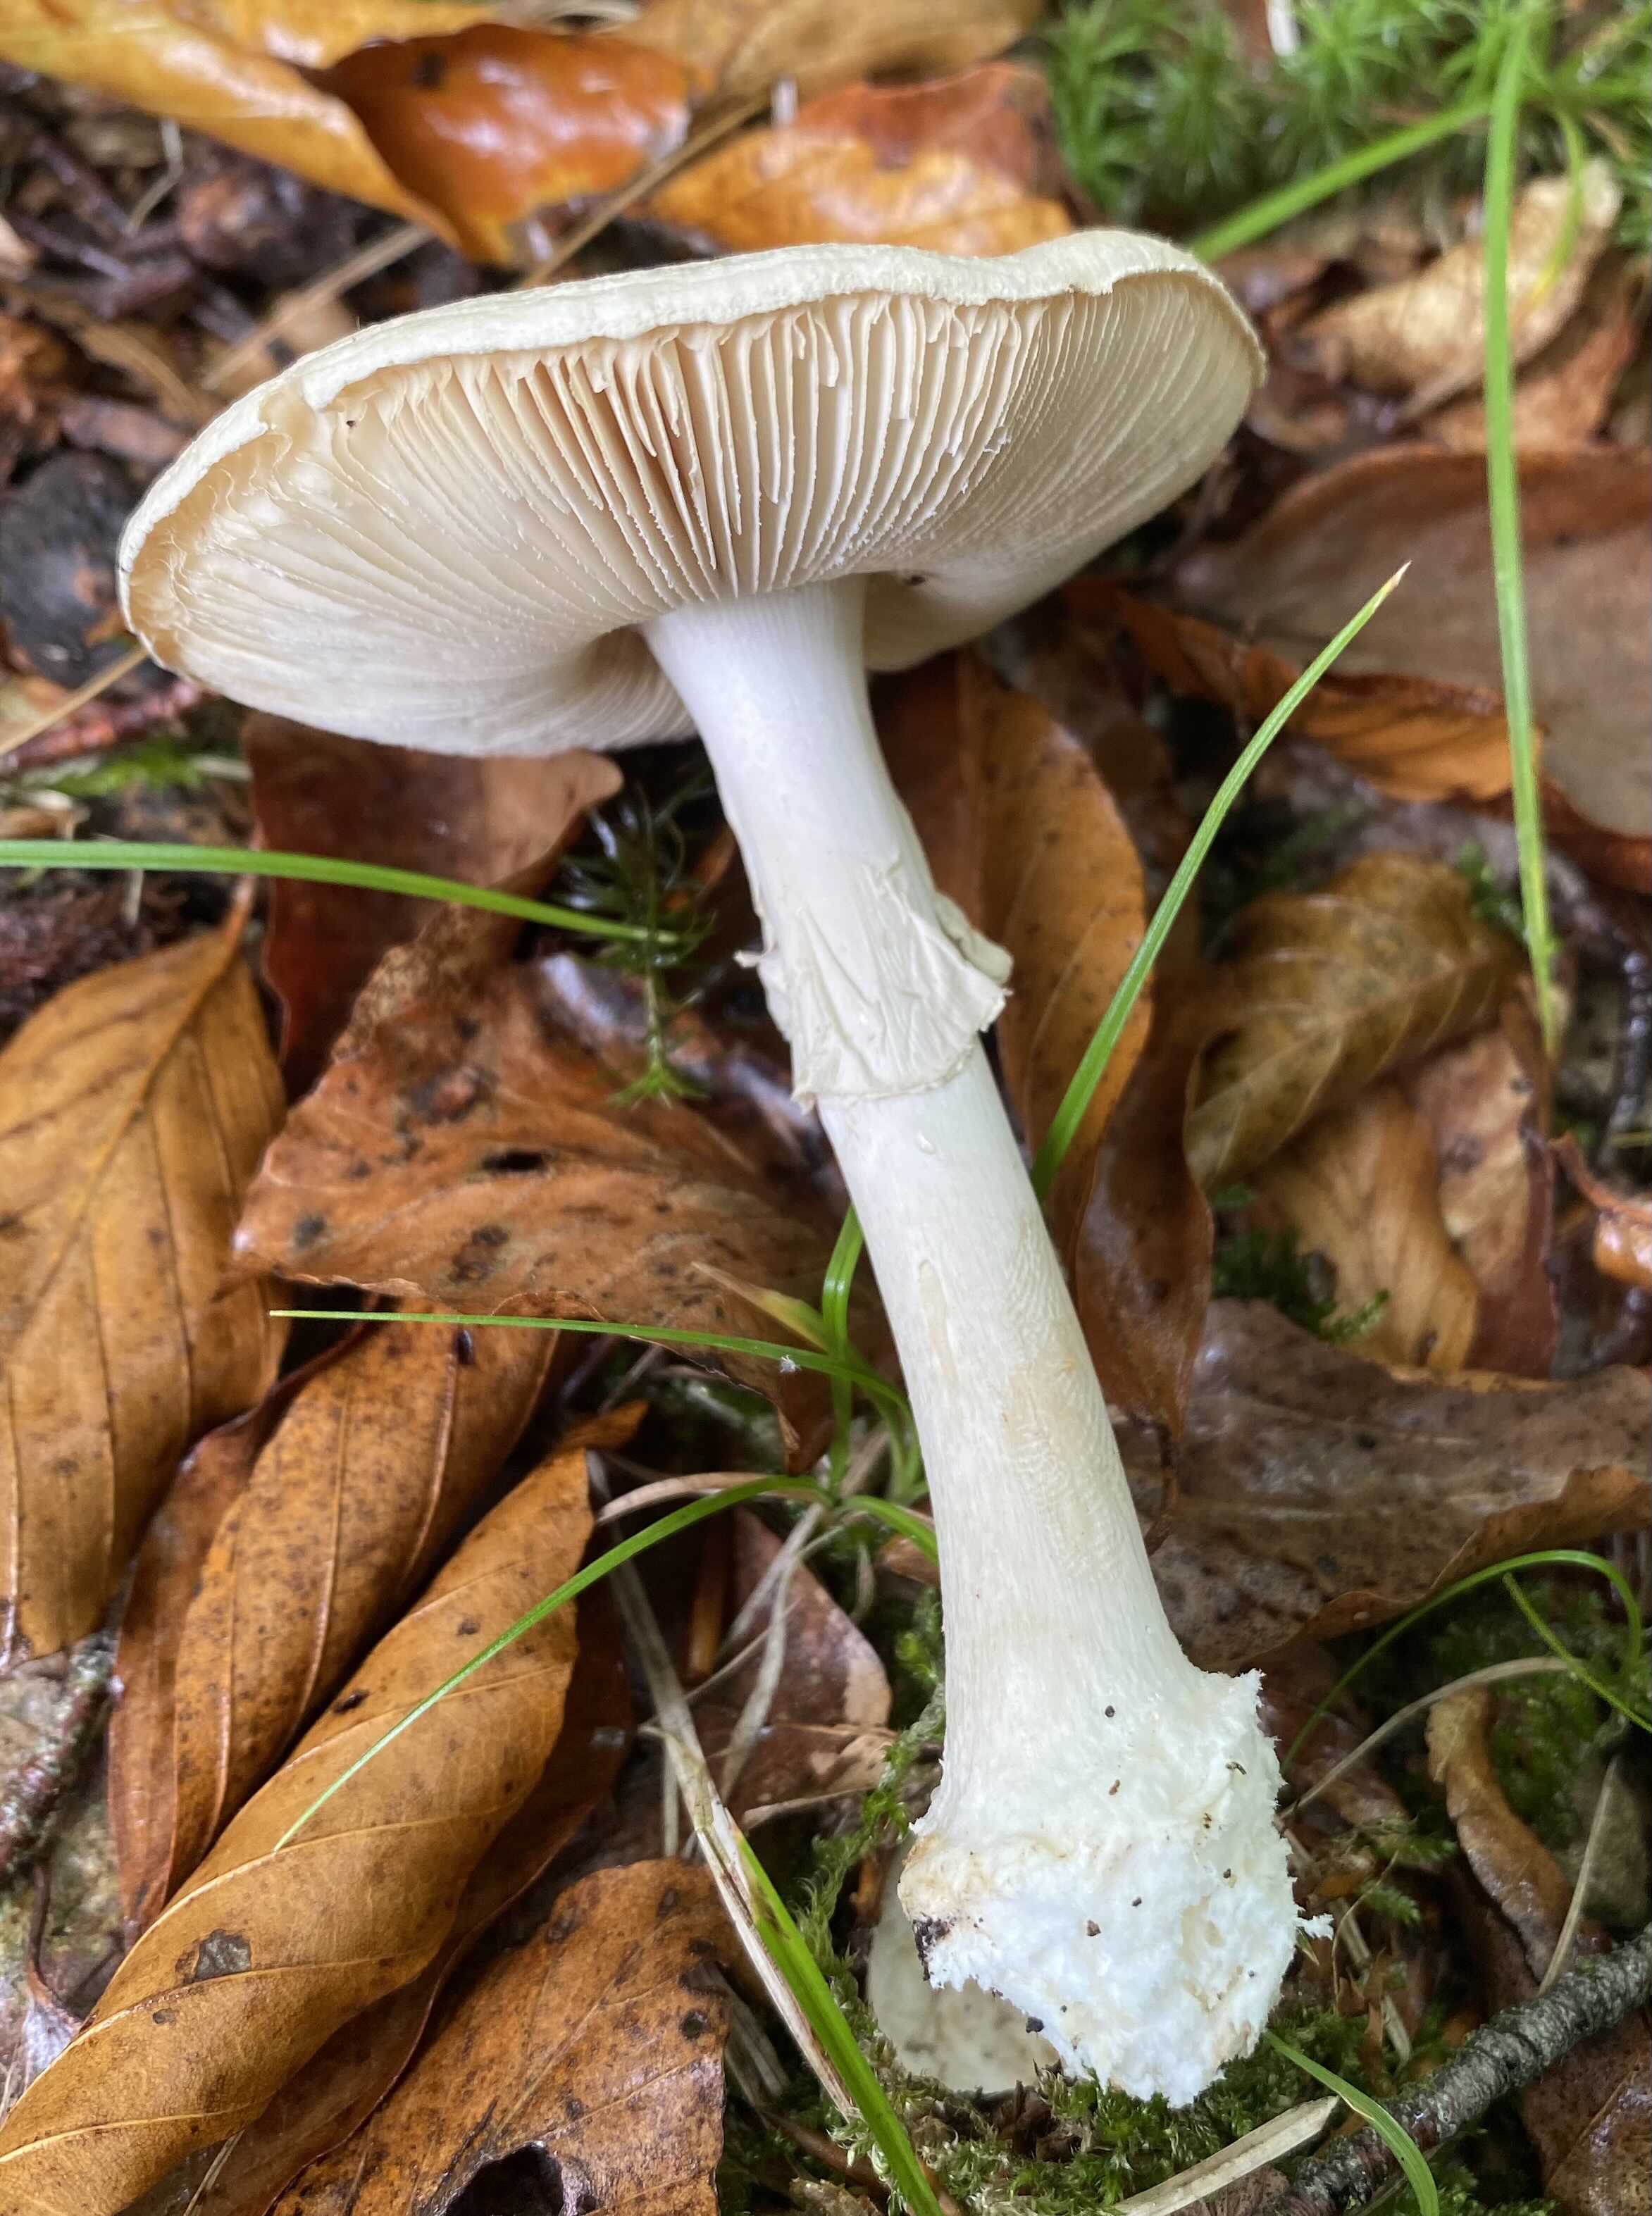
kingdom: Fungi
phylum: Basidiomycota
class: Agaricomycetes
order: Agaricales
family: Amanitaceae
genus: Amanita
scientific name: Amanita citrina
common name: False death-cap
